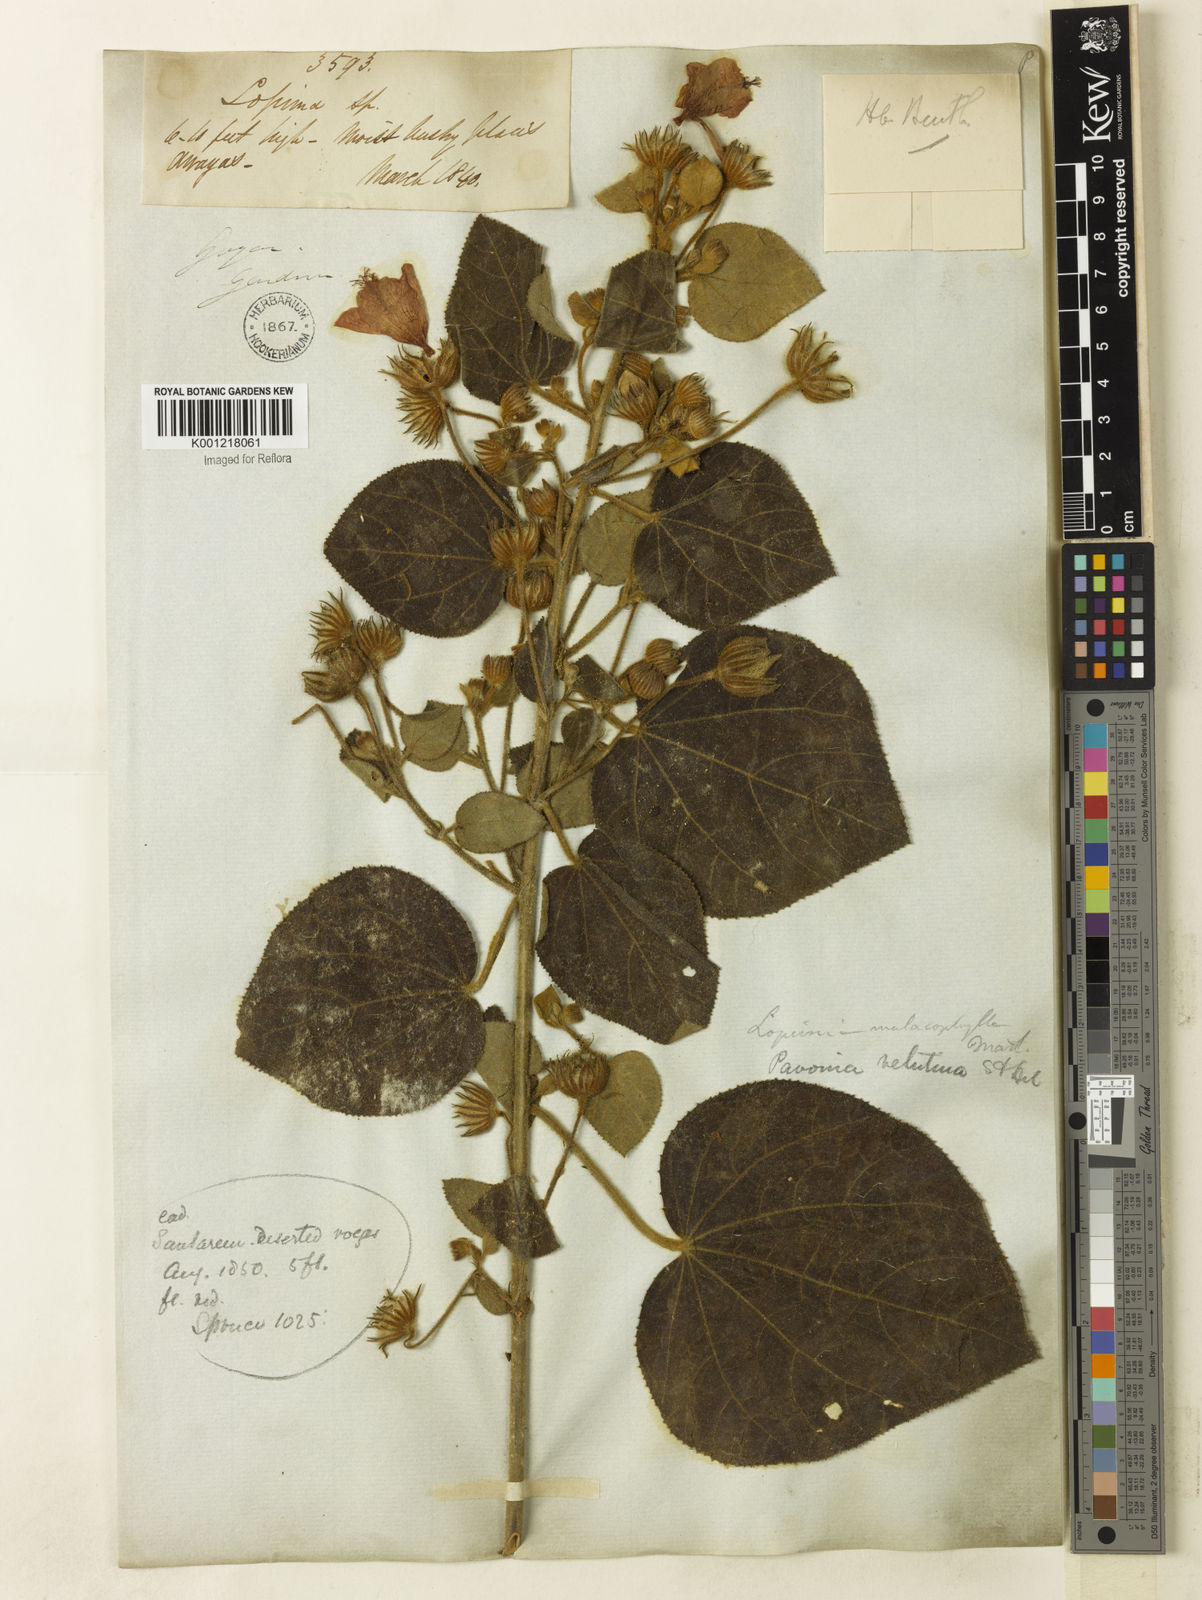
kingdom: Plantae
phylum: Tracheophyta
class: Magnoliopsida
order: Malvales
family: Malvaceae
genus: Pavonia
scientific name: Pavonia malacophylla
